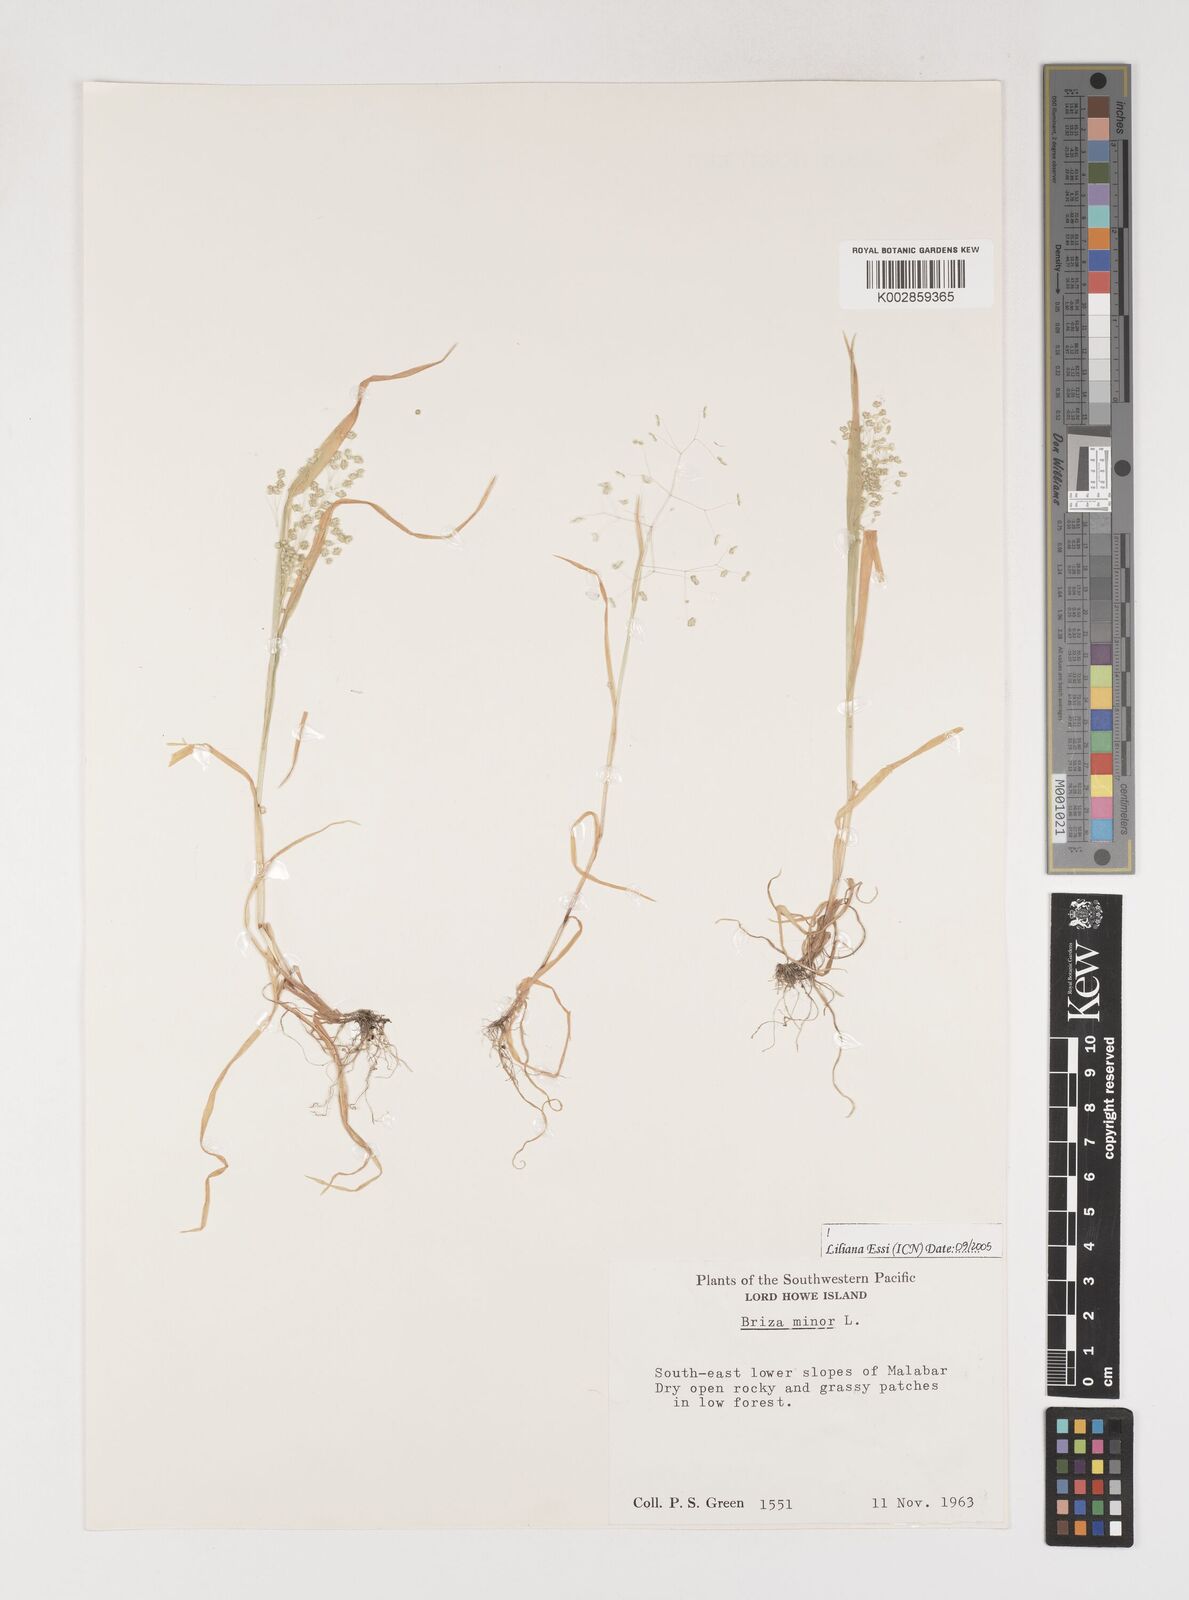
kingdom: Plantae
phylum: Tracheophyta
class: Liliopsida
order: Poales
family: Poaceae
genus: Briza
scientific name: Briza minor
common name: Lesser quaking-grass
